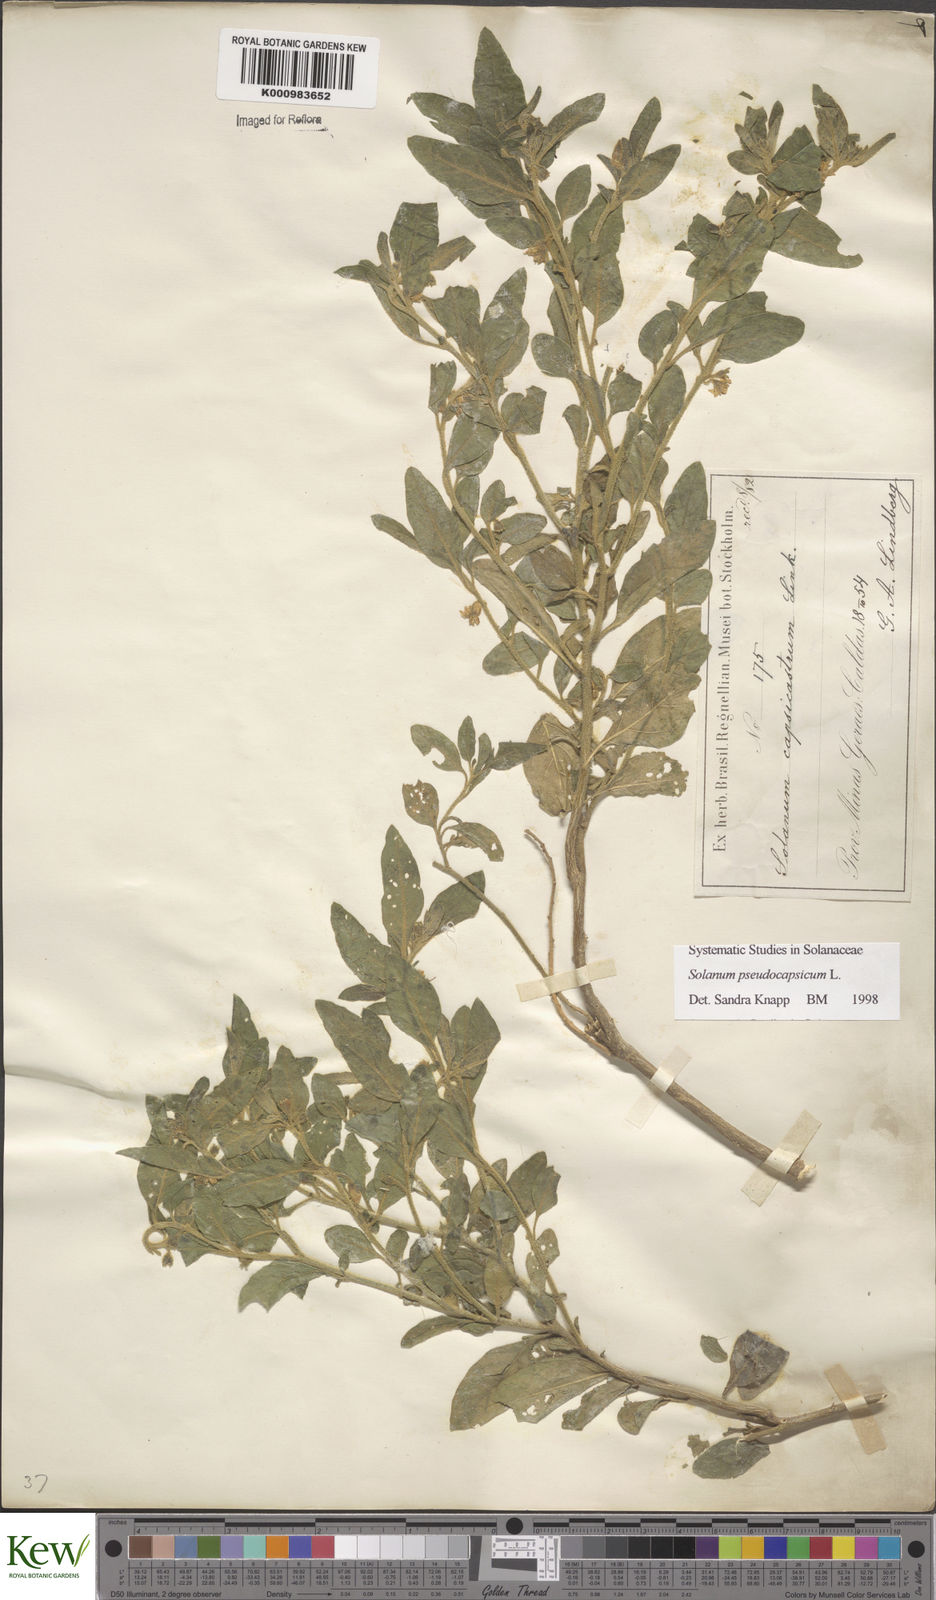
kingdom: Plantae
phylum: Tracheophyta
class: Magnoliopsida
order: Solanales
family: Solanaceae
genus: Solanum
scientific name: Solanum pseudocapsicum
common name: Jerusalem cherry
